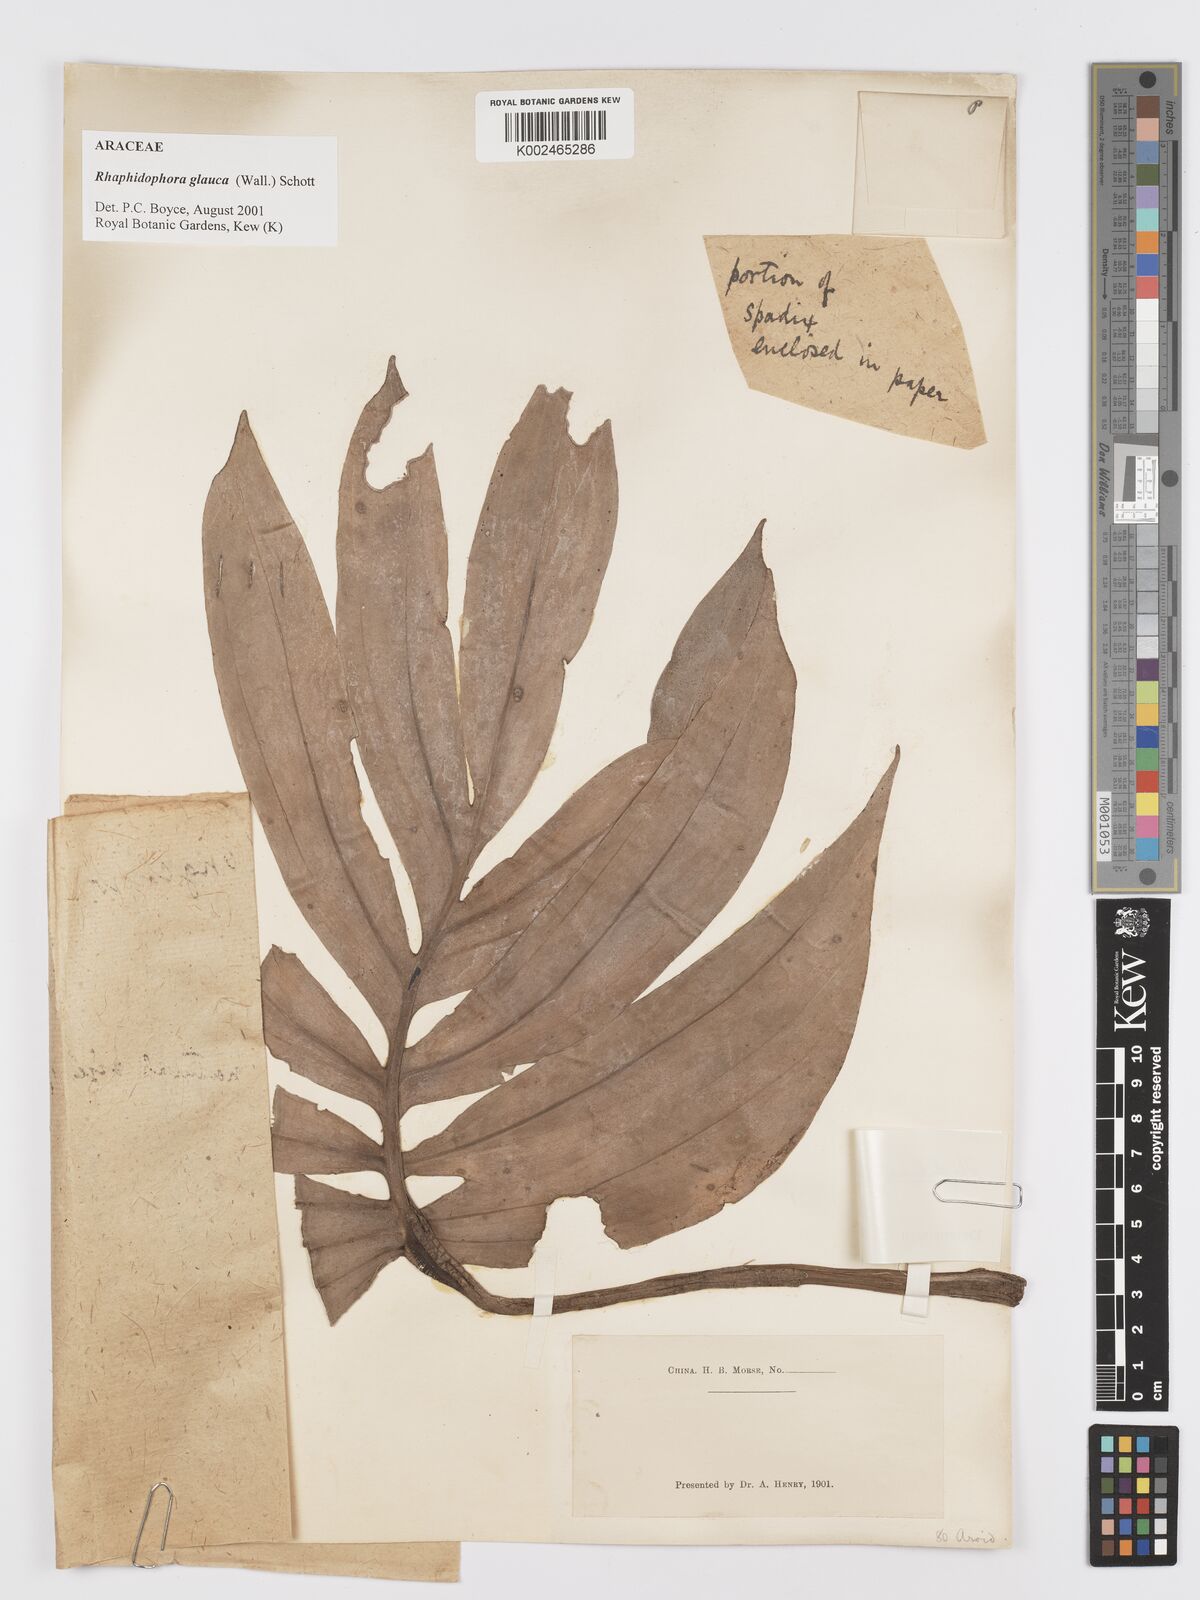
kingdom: Plantae
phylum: Tracheophyta
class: Liliopsida
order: Alismatales
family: Araceae
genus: Rhaphidophora
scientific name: Rhaphidophora glauca
